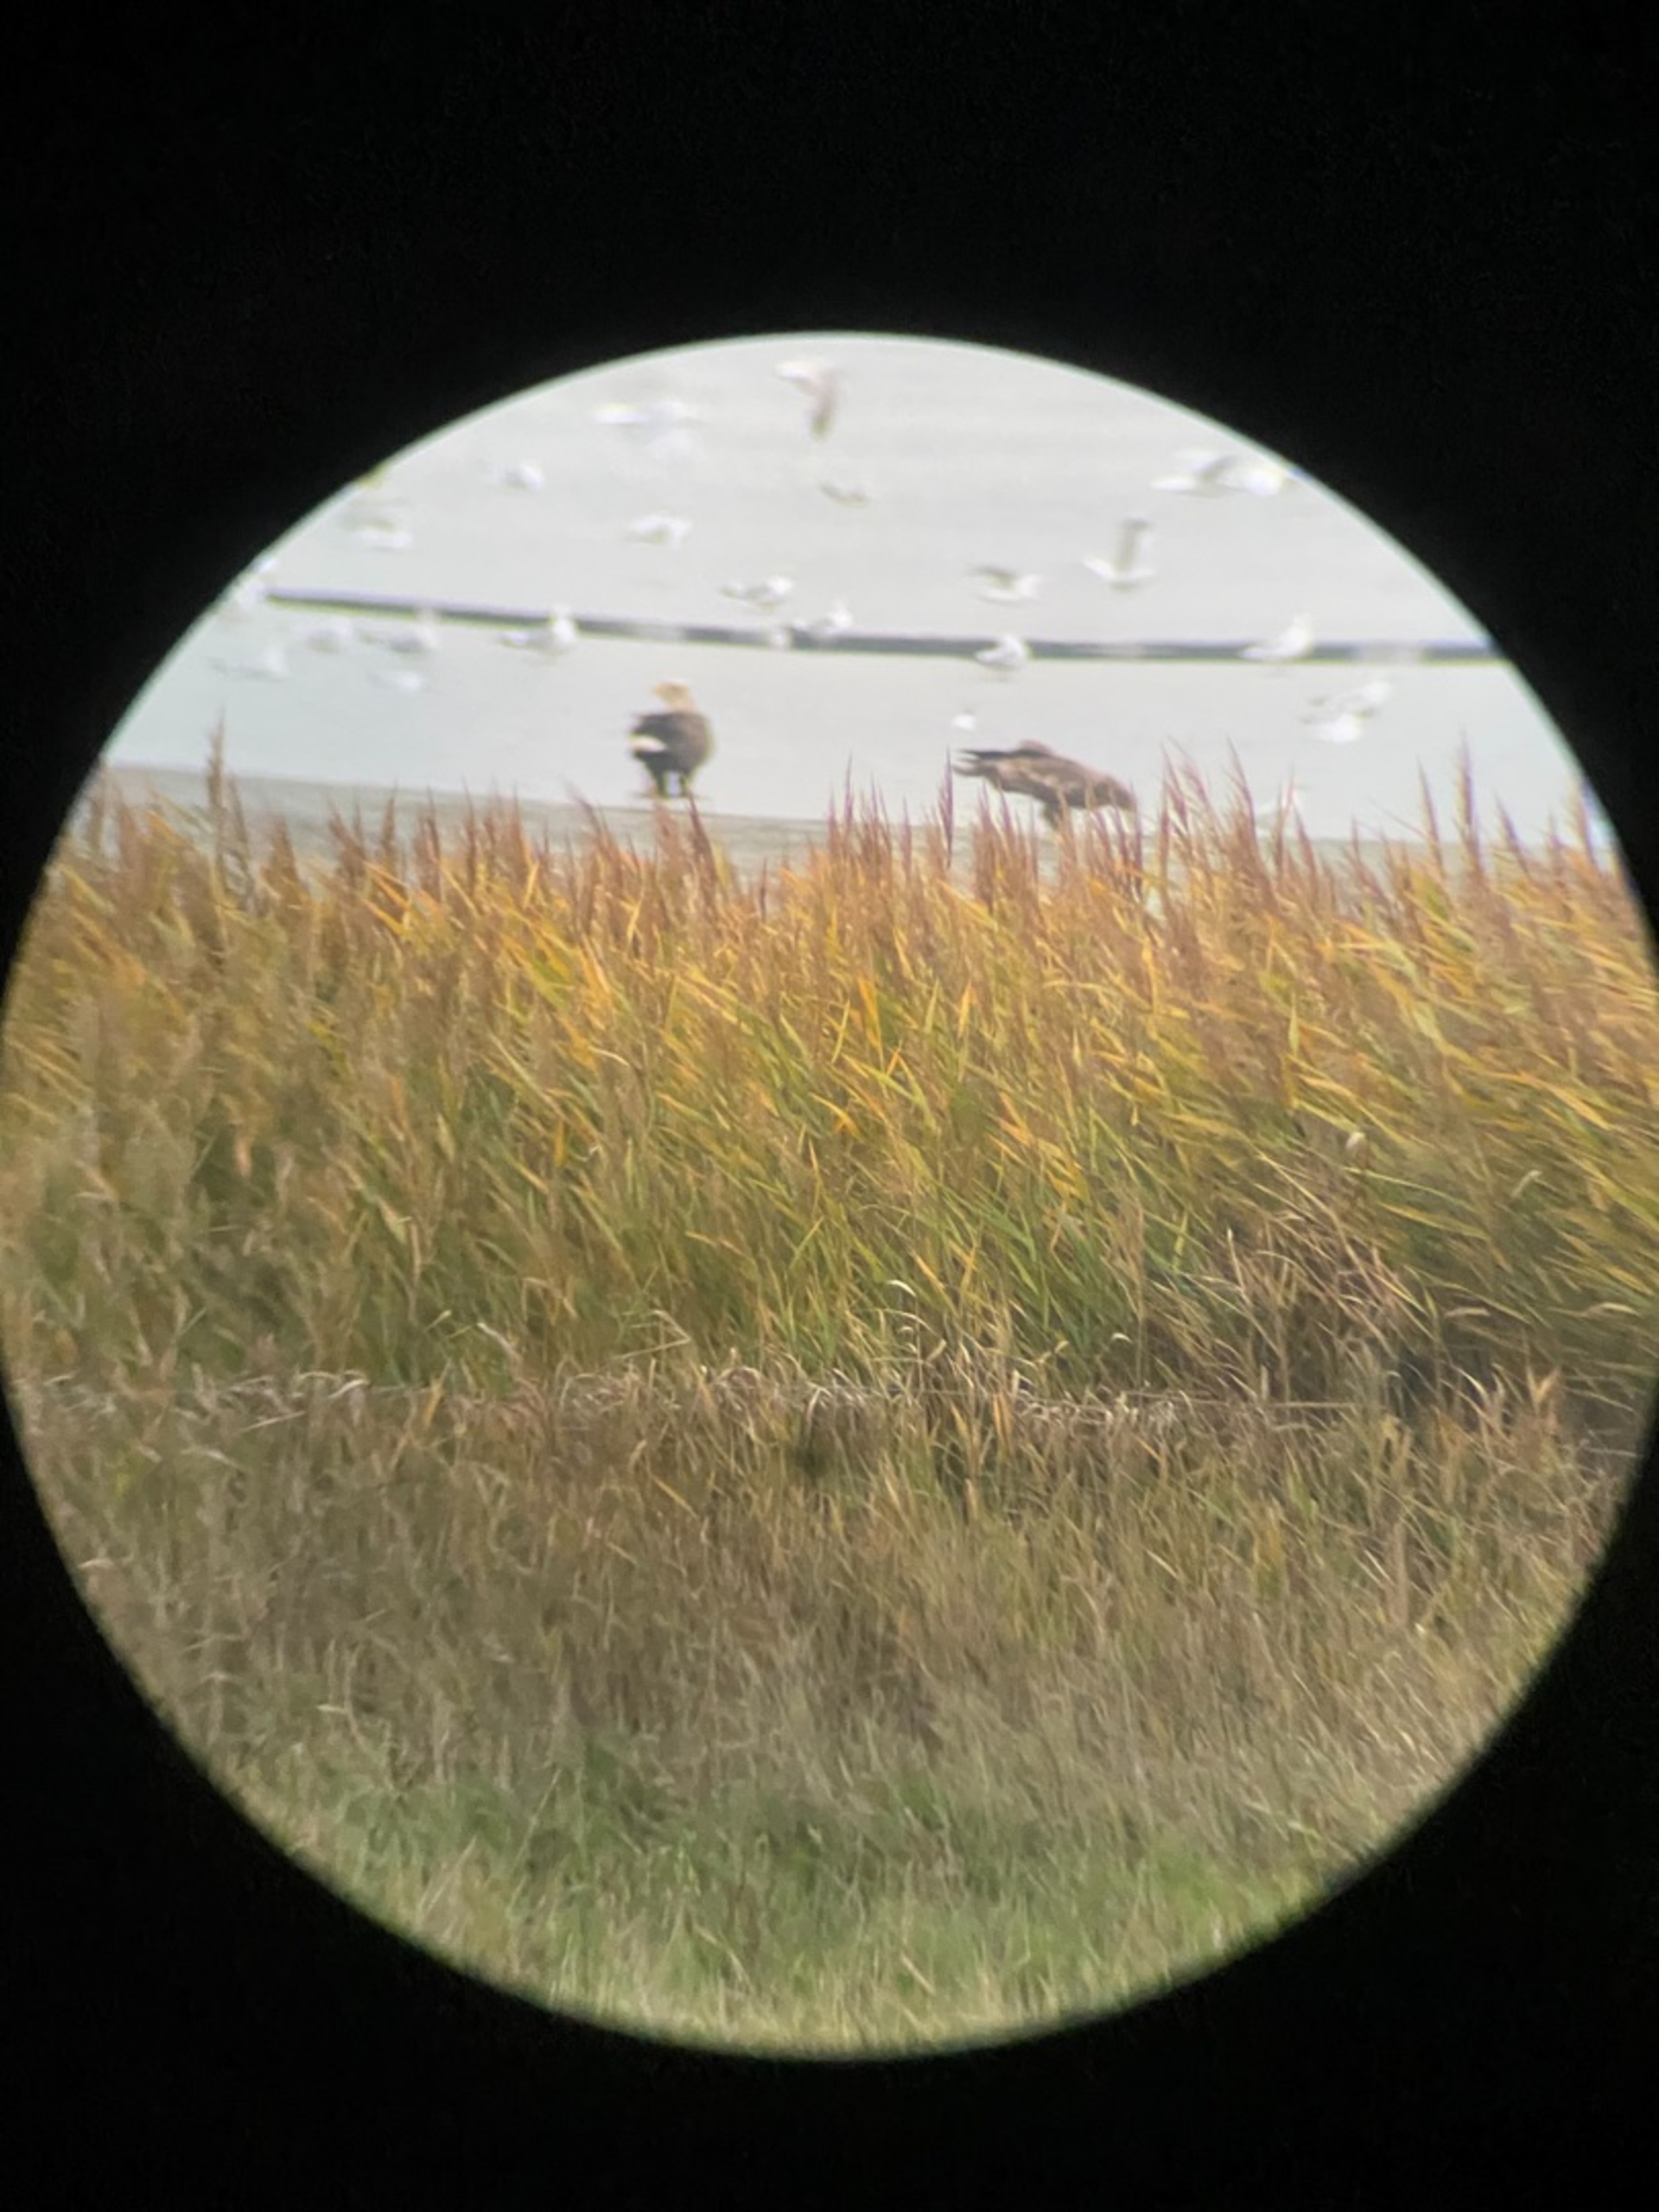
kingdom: Animalia
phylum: Chordata
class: Aves
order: Accipitriformes
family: Accipitridae
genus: Haliaeetus
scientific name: Haliaeetus albicilla
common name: Havørn
